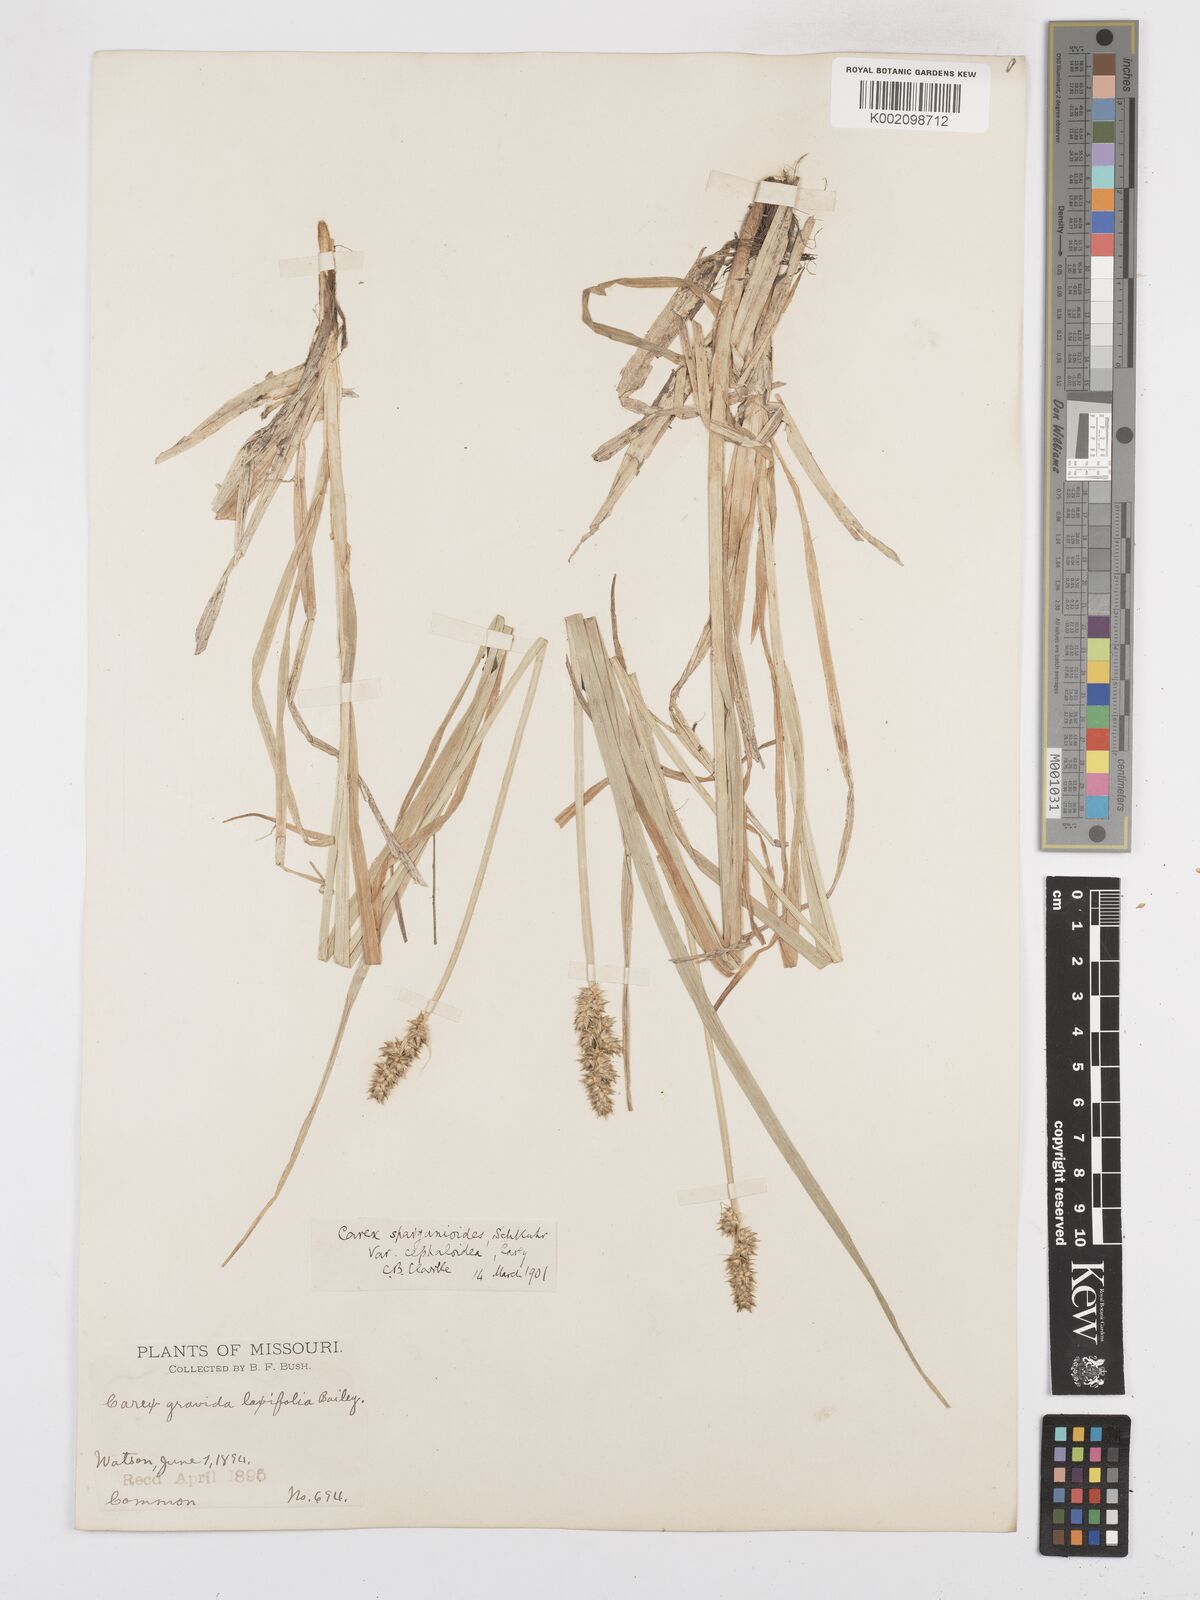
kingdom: Plantae
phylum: Tracheophyta
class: Liliopsida
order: Poales
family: Cyperaceae
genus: Carex
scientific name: Carex gravida
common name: Heavy sedge
